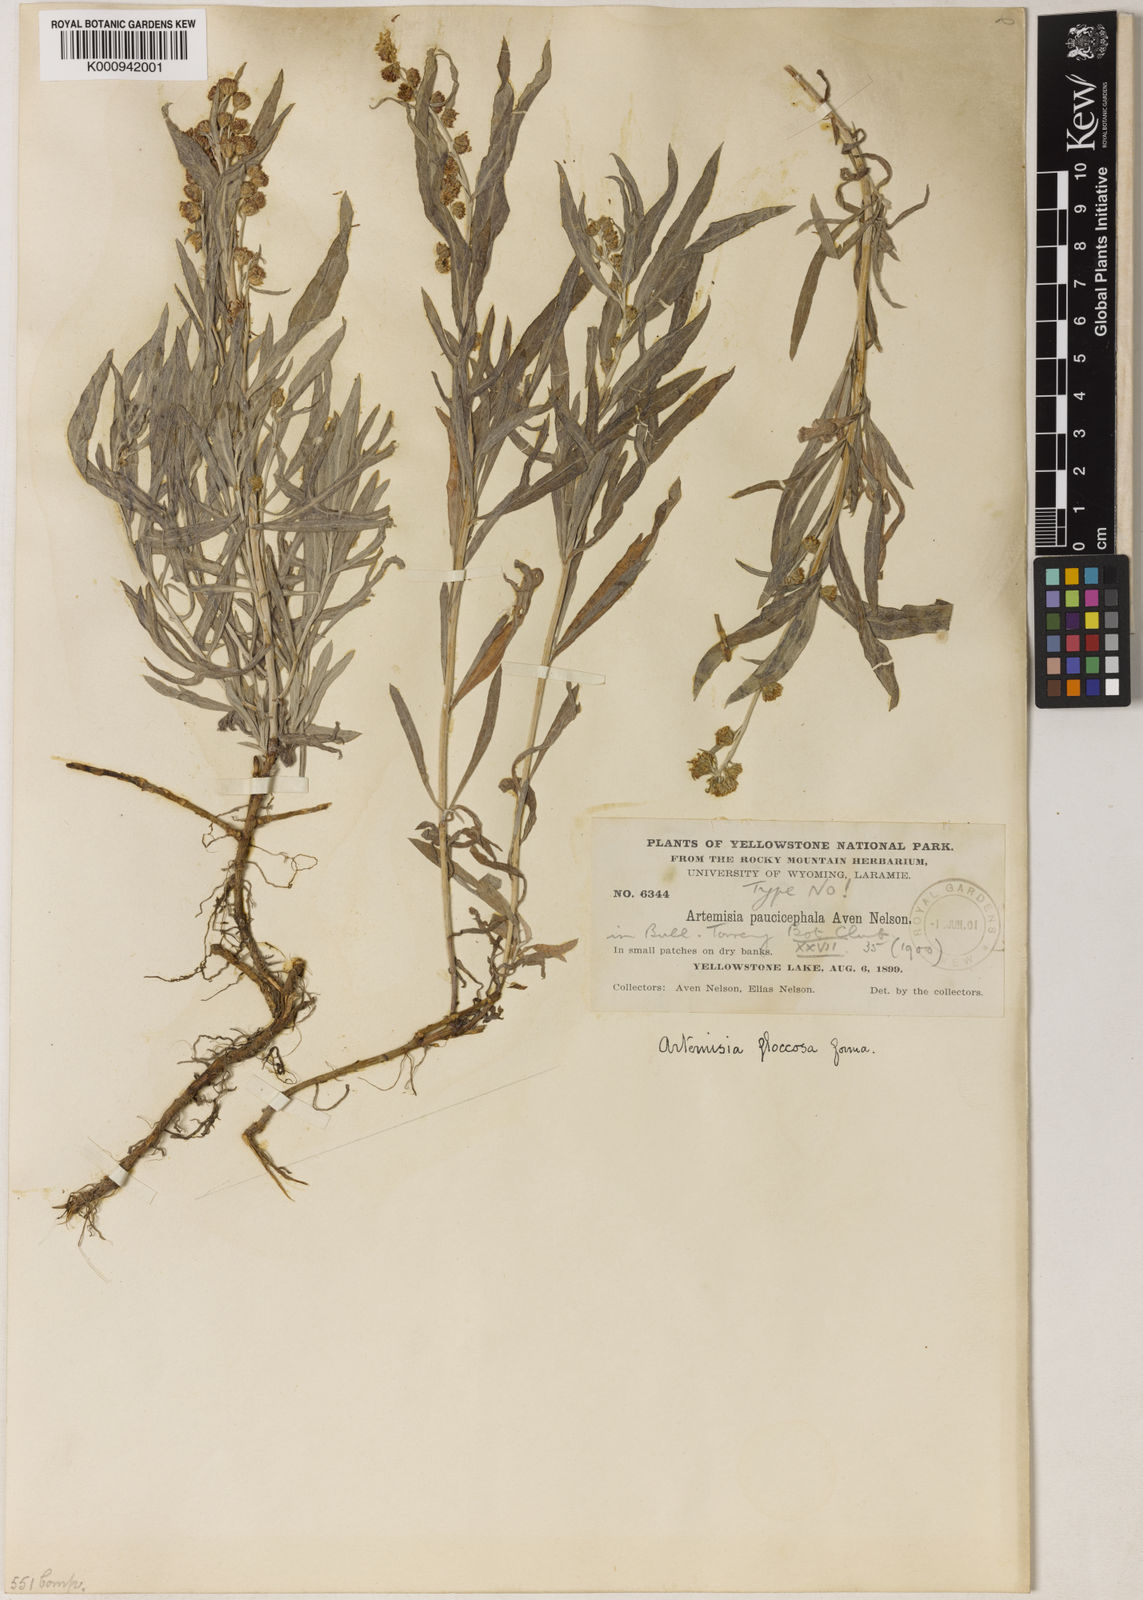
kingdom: Plantae
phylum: Tracheophyta
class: Magnoliopsida
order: Asterales
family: Asteraceae
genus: Artemisia
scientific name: Artemisia ludoviciana
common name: Western mugwort
